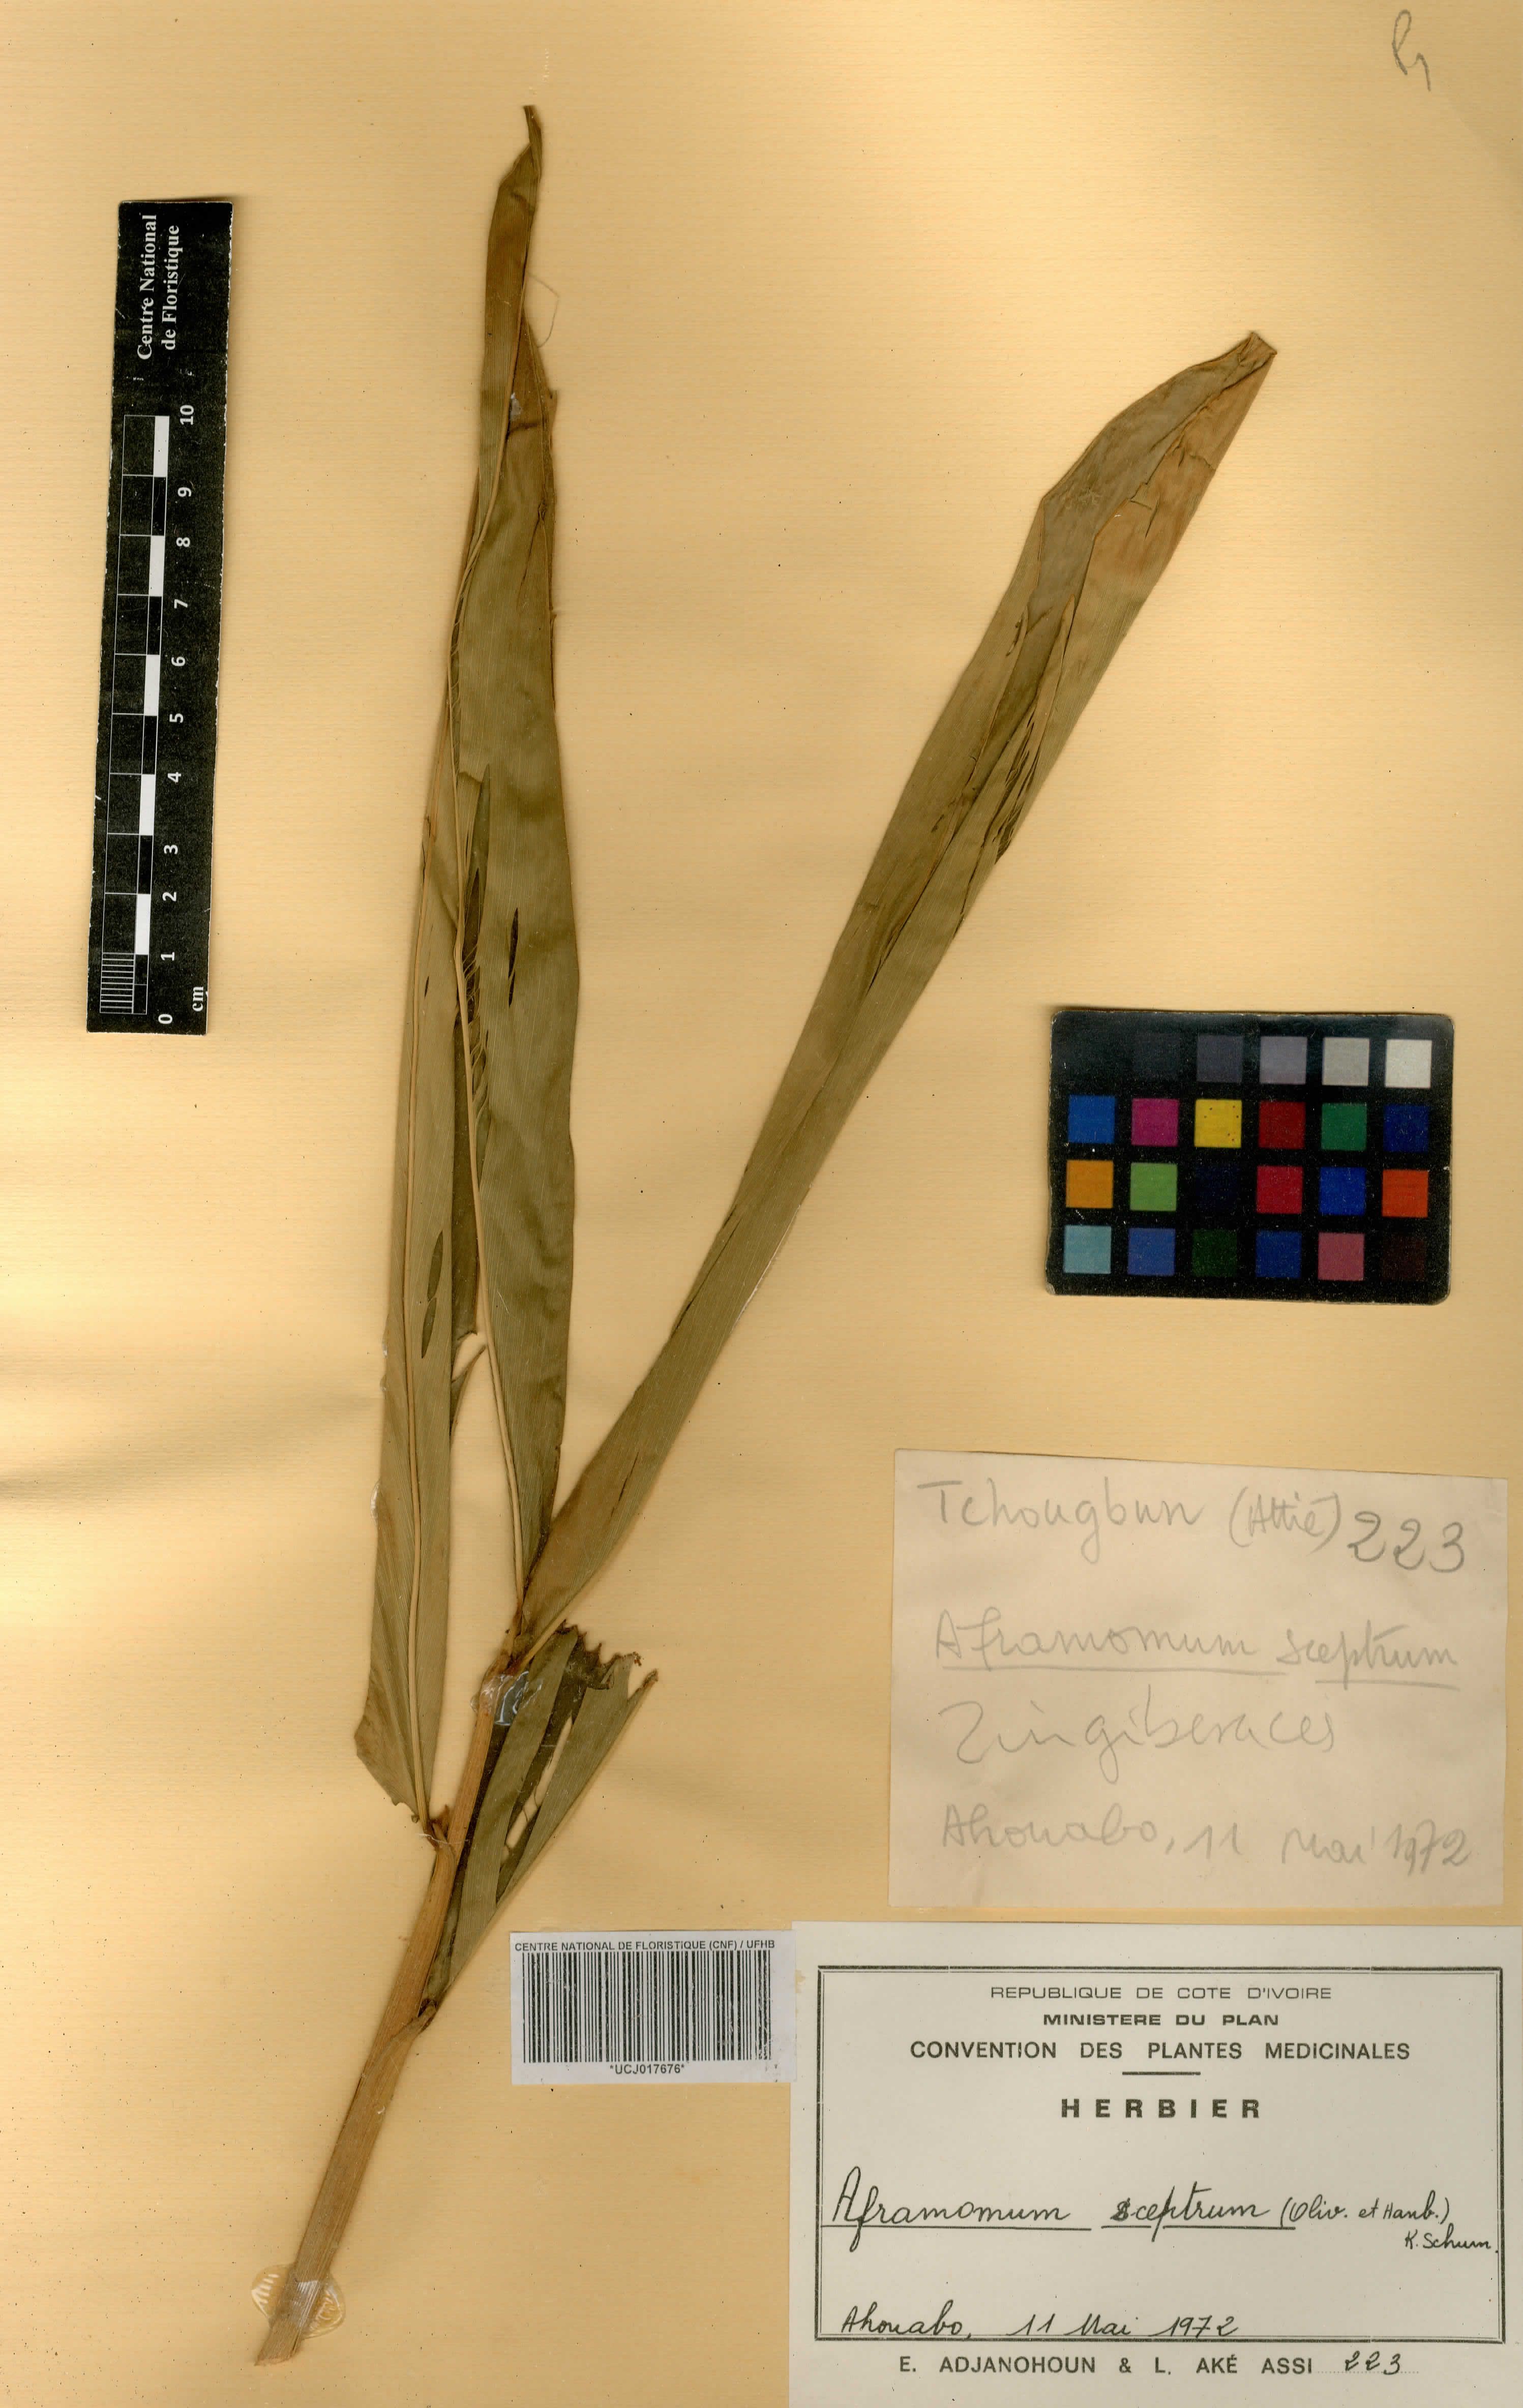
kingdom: Plantae
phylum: Tracheophyta
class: Liliopsida
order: Zingiberales
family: Zingiberaceae
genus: Aframomum
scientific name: Aframomum cereum
